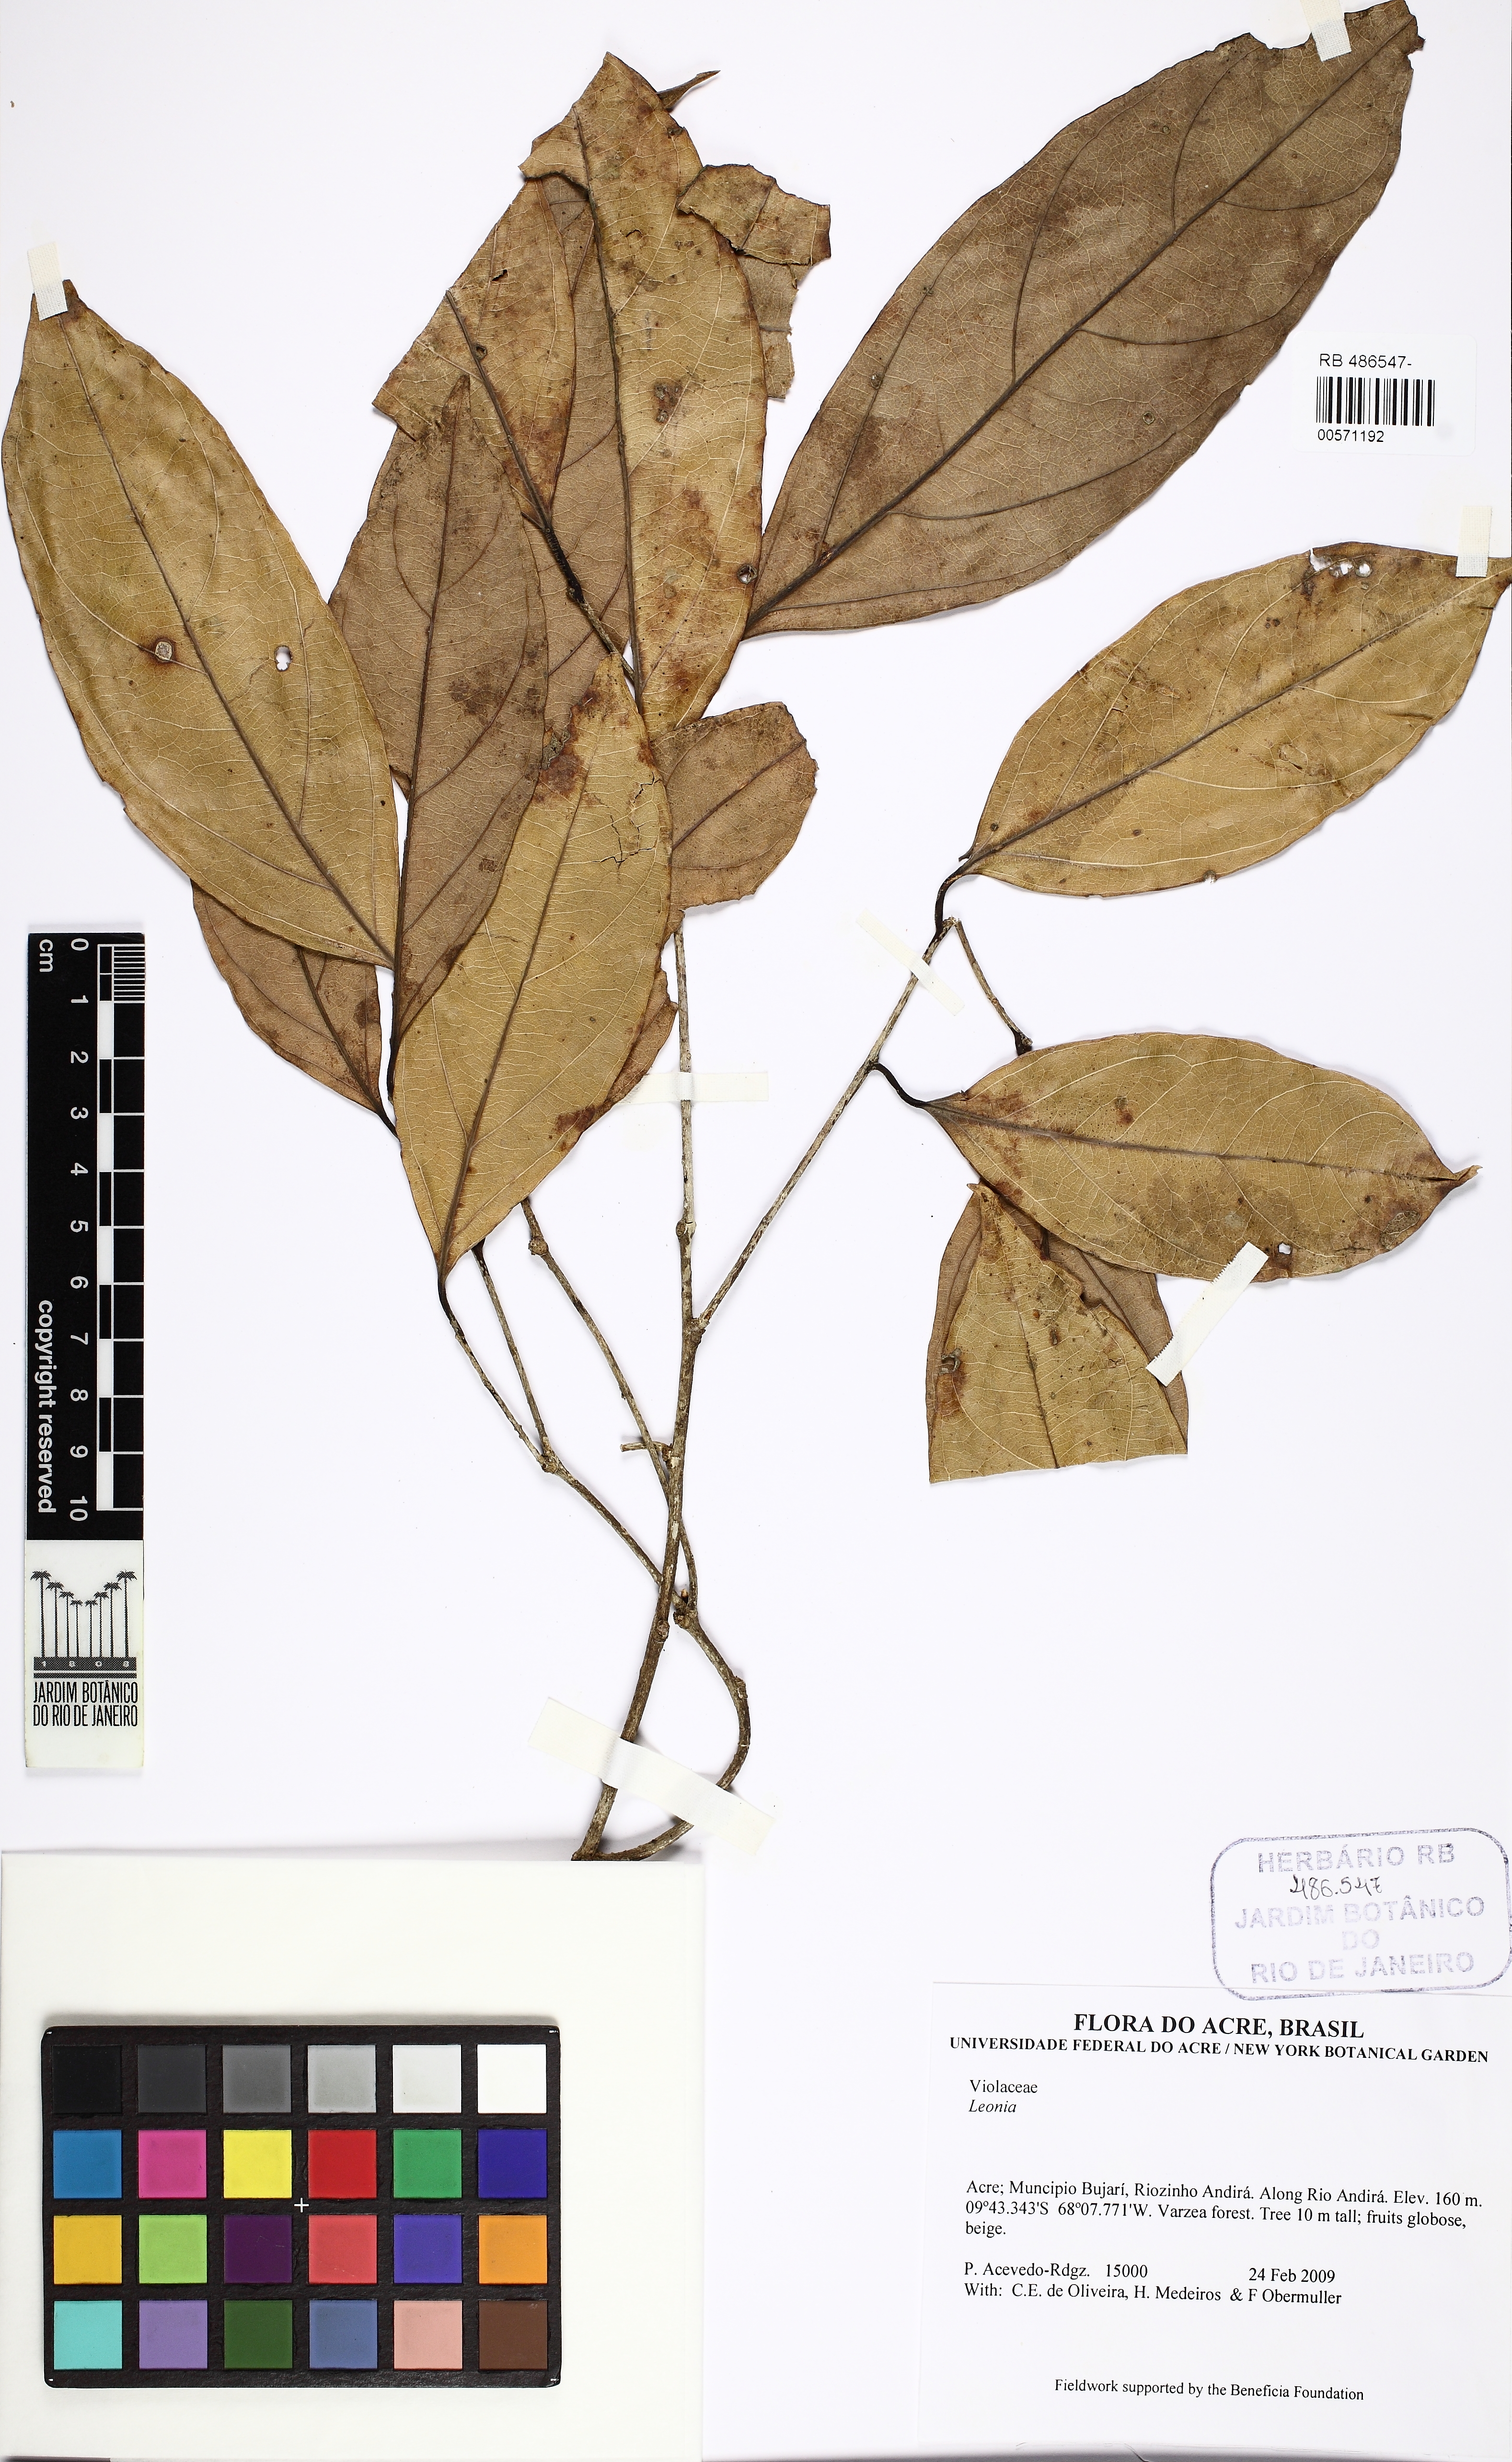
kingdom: Plantae
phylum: Tracheophyta
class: Magnoliopsida
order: Malpighiales
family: Violaceae
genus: Leonia
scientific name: Leonia
